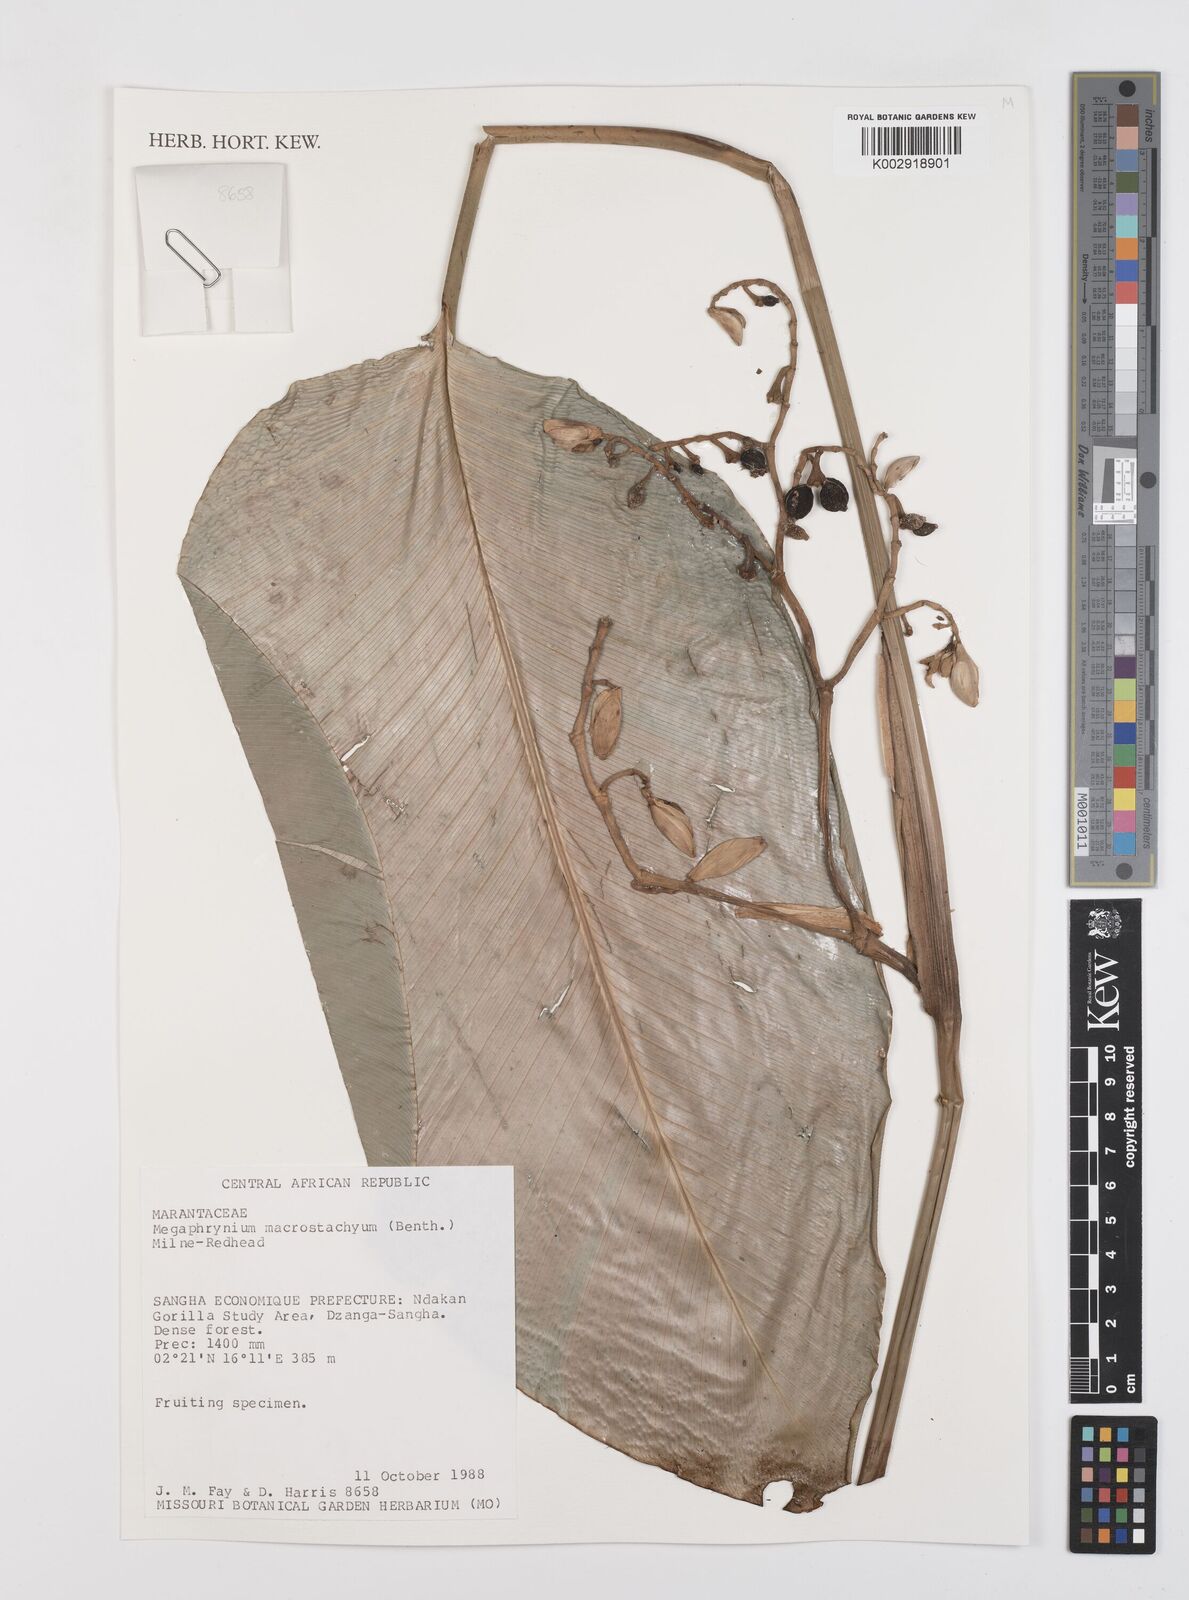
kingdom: Plantae
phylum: Tracheophyta
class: Liliopsida
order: Zingiberales
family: Marantaceae
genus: Megaphrynium
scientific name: Megaphrynium macrostachyum
